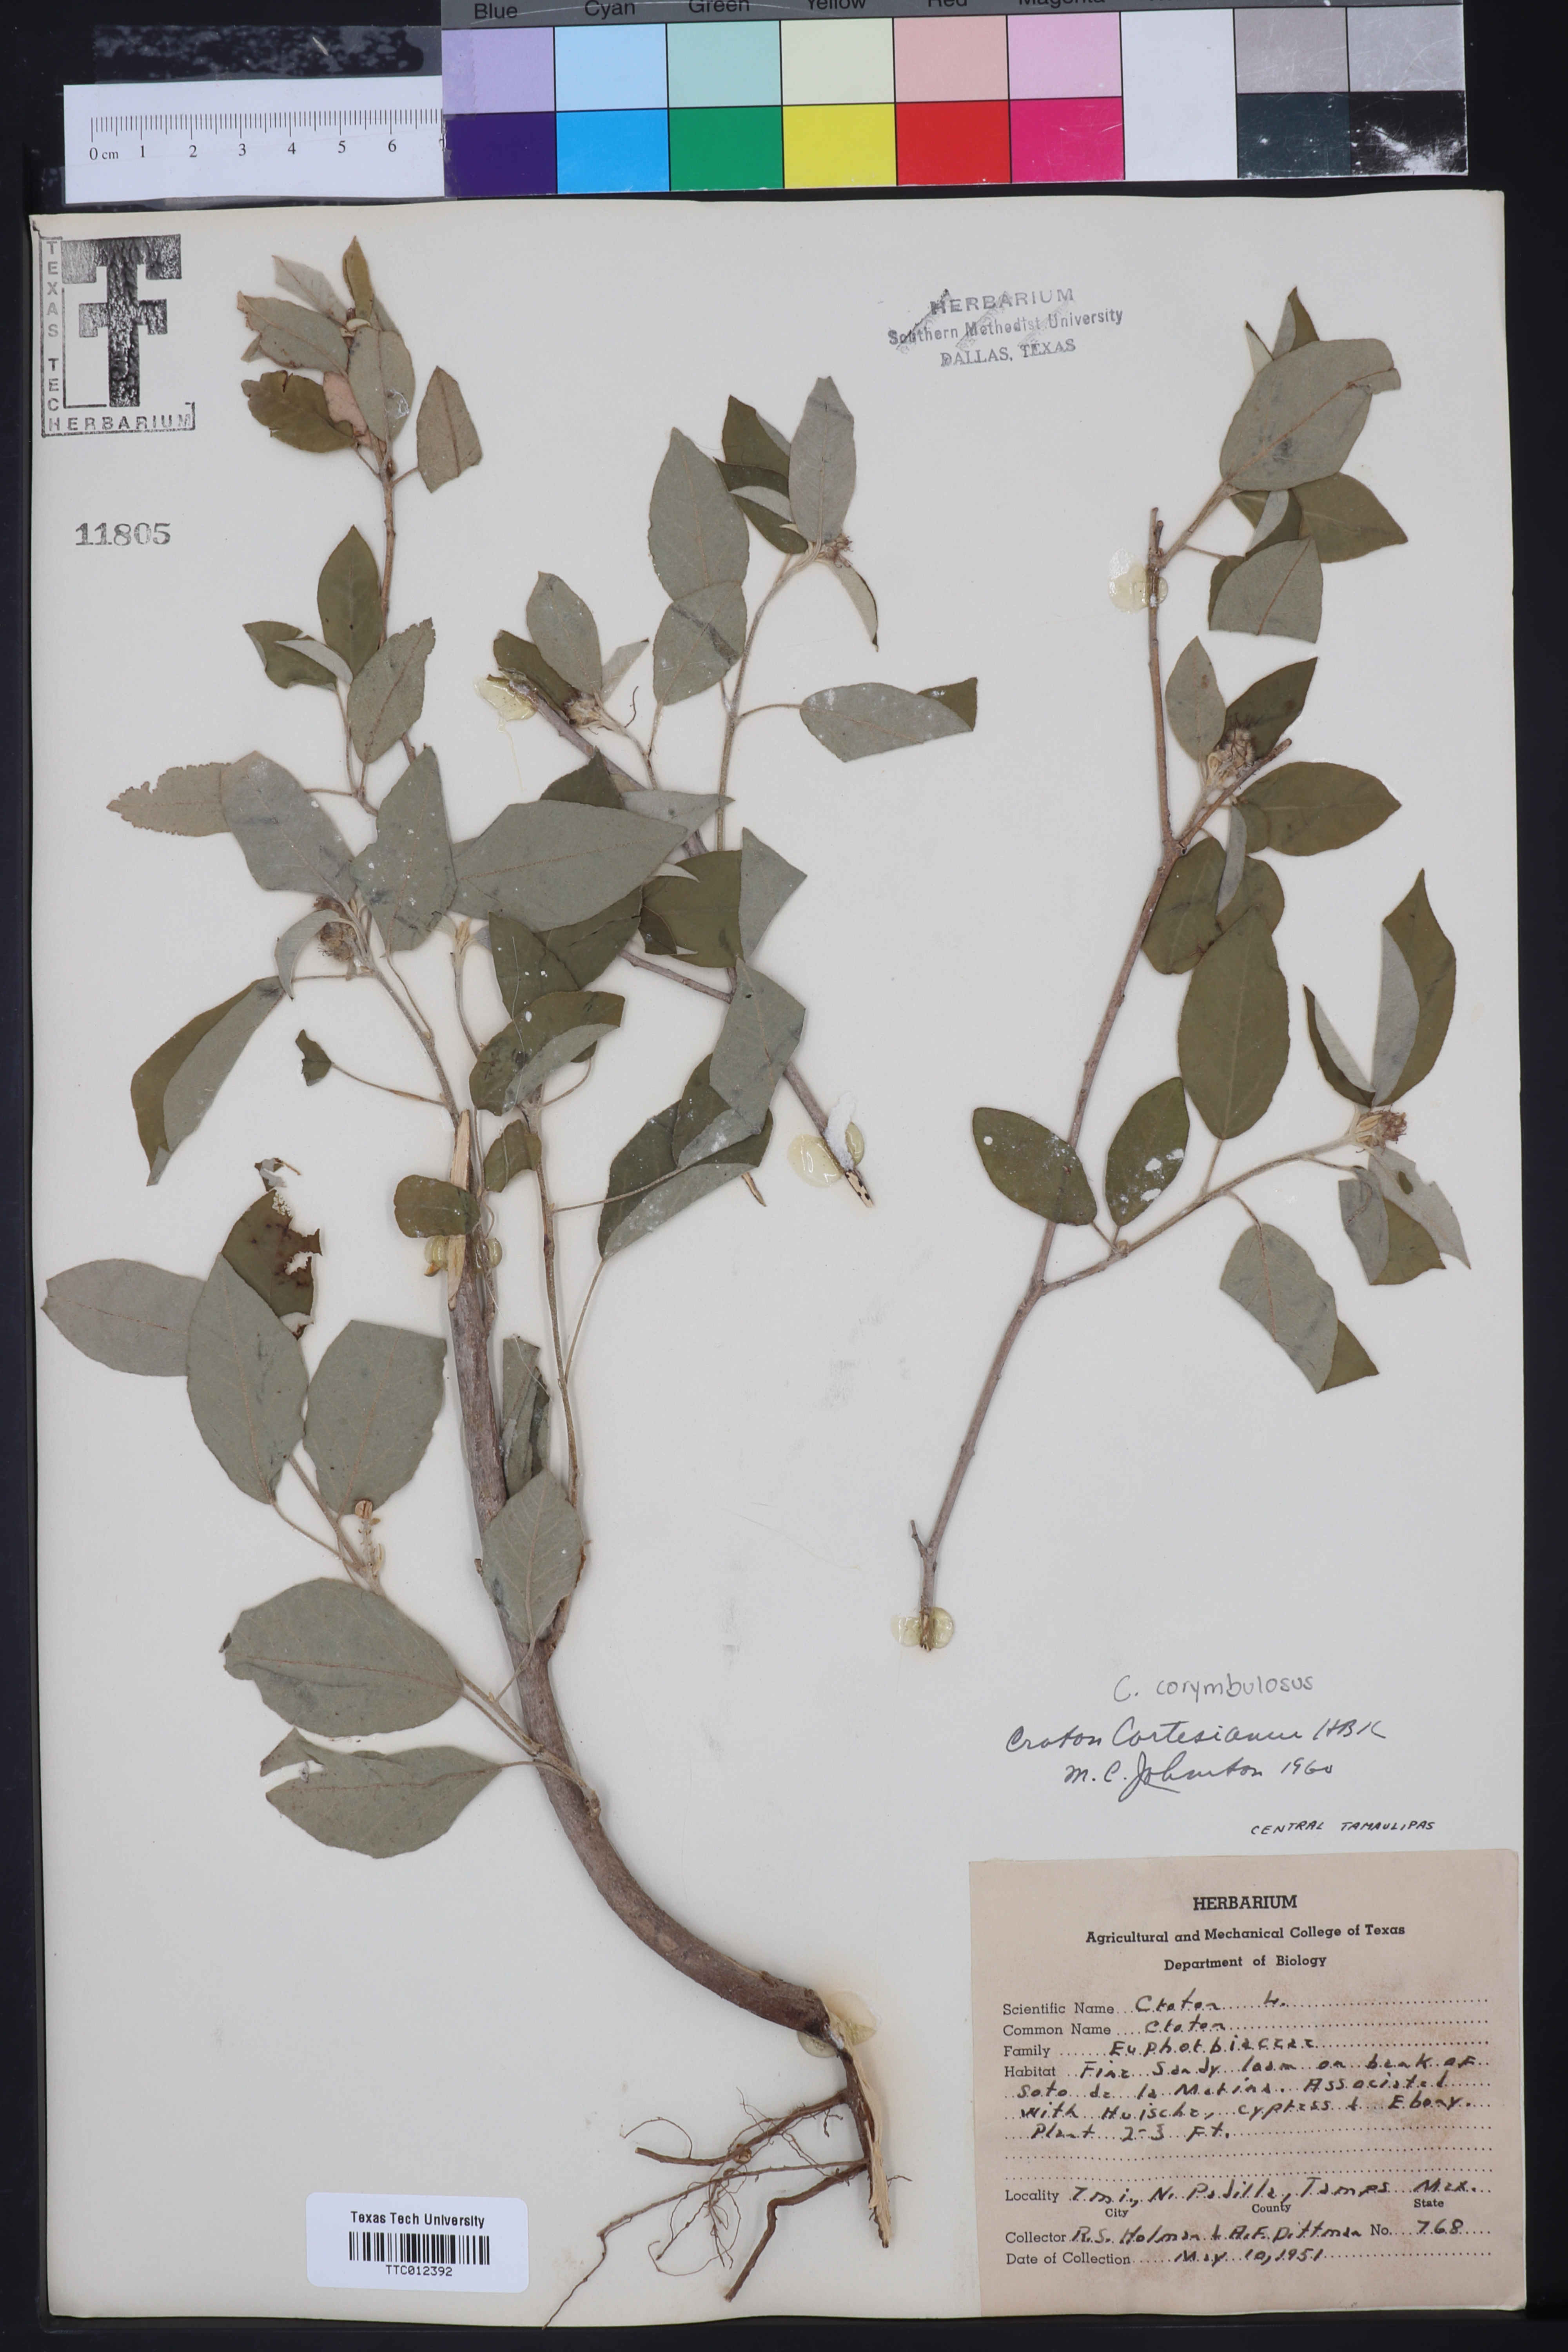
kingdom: Plantae
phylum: Tracheophyta
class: Magnoliopsida
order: Malpighiales
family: Euphorbiaceae
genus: Croton
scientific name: Croton cortesianus
